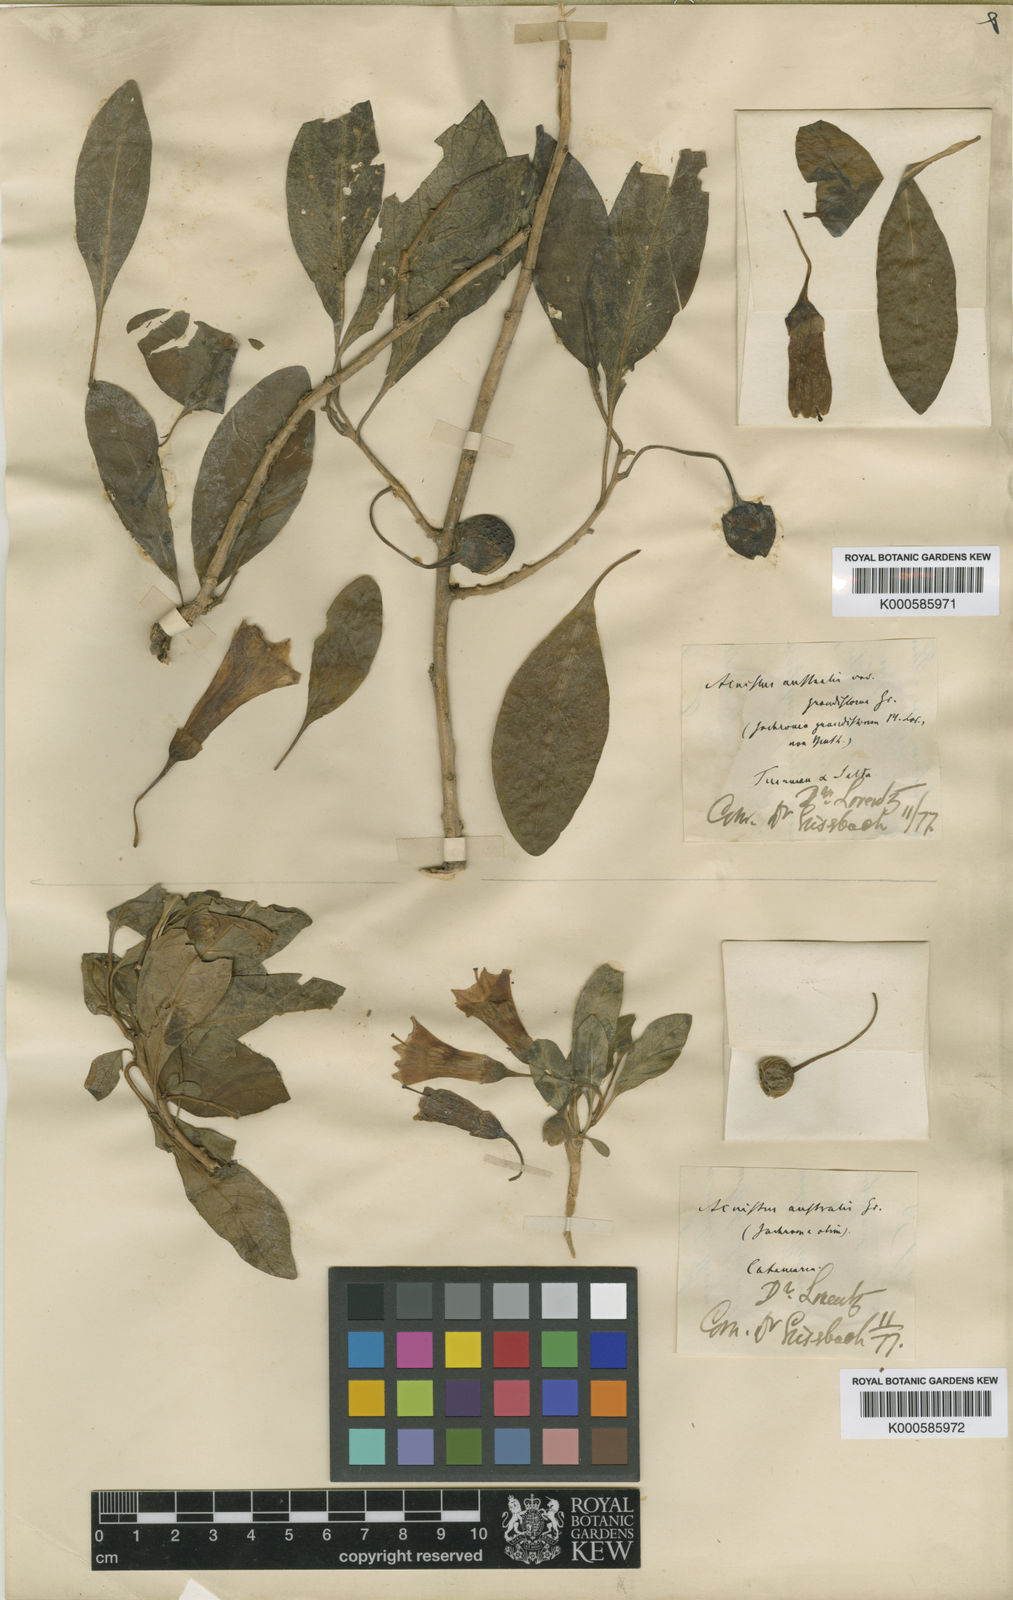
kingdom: Plantae
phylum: Tracheophyta
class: Magnoliopsida
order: Solanales
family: Solanaceae
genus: Eriolarynx
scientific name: Eriolarynx australis
